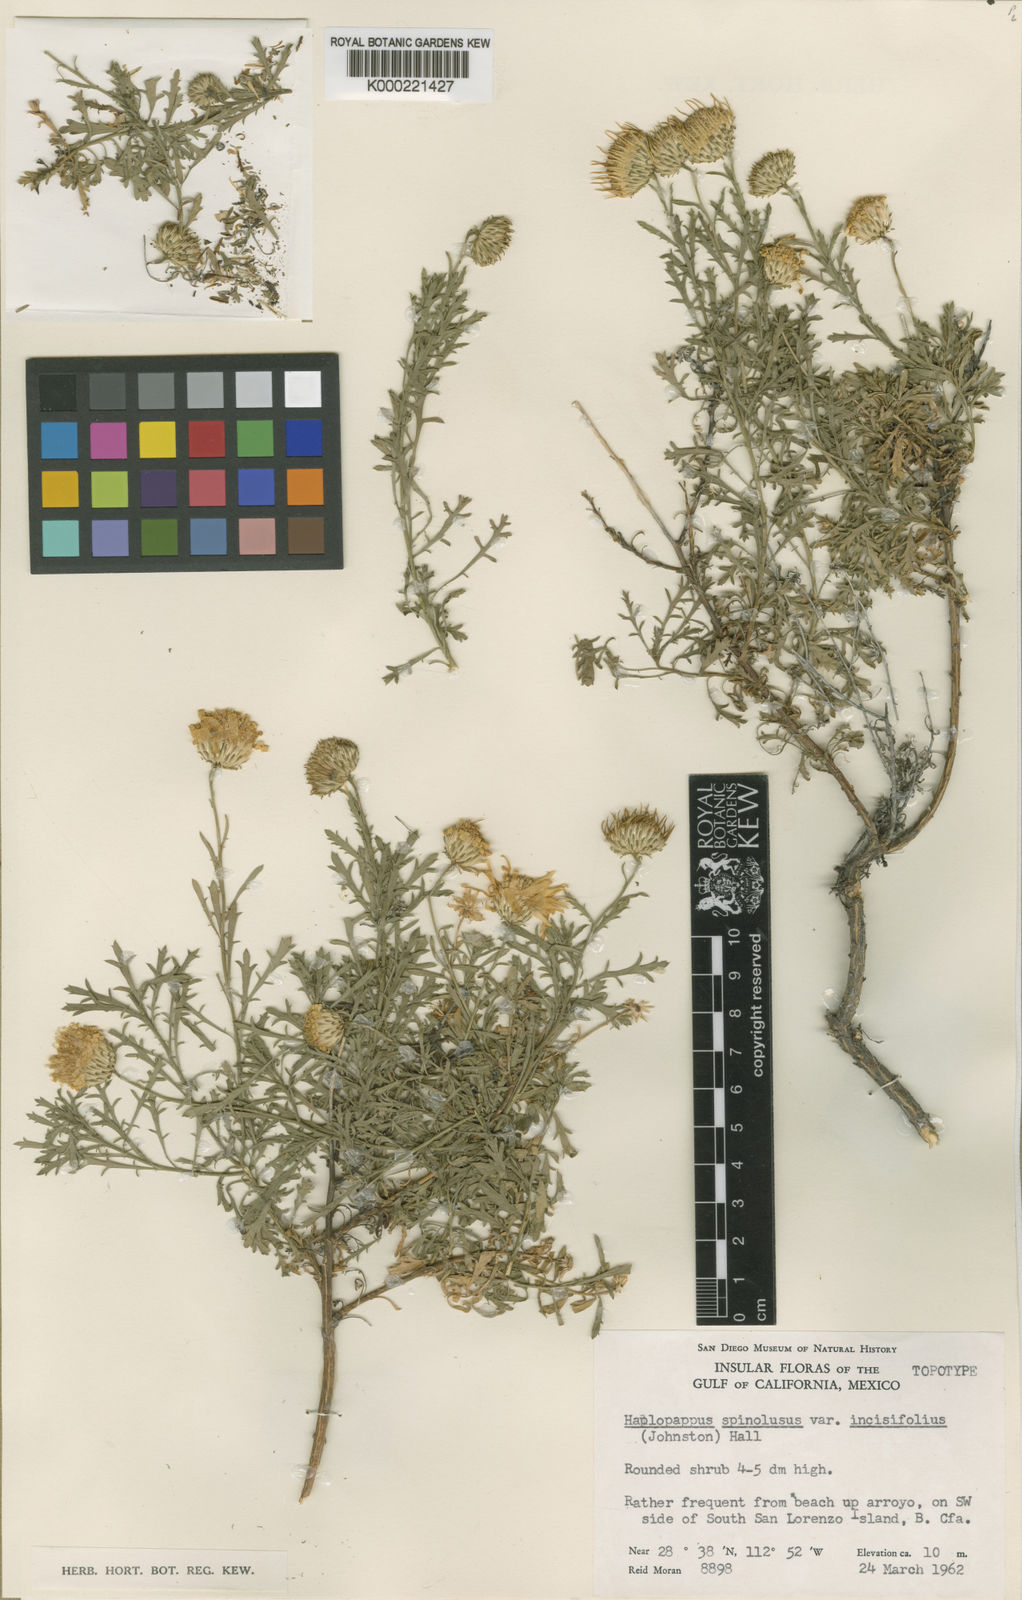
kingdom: Plantae
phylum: Tracheophyta
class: Magnoliopsida
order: Asterales
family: Asteraceae
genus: Xanthisma
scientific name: Xanthisma spinulosum
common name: Spiny goldenweed
